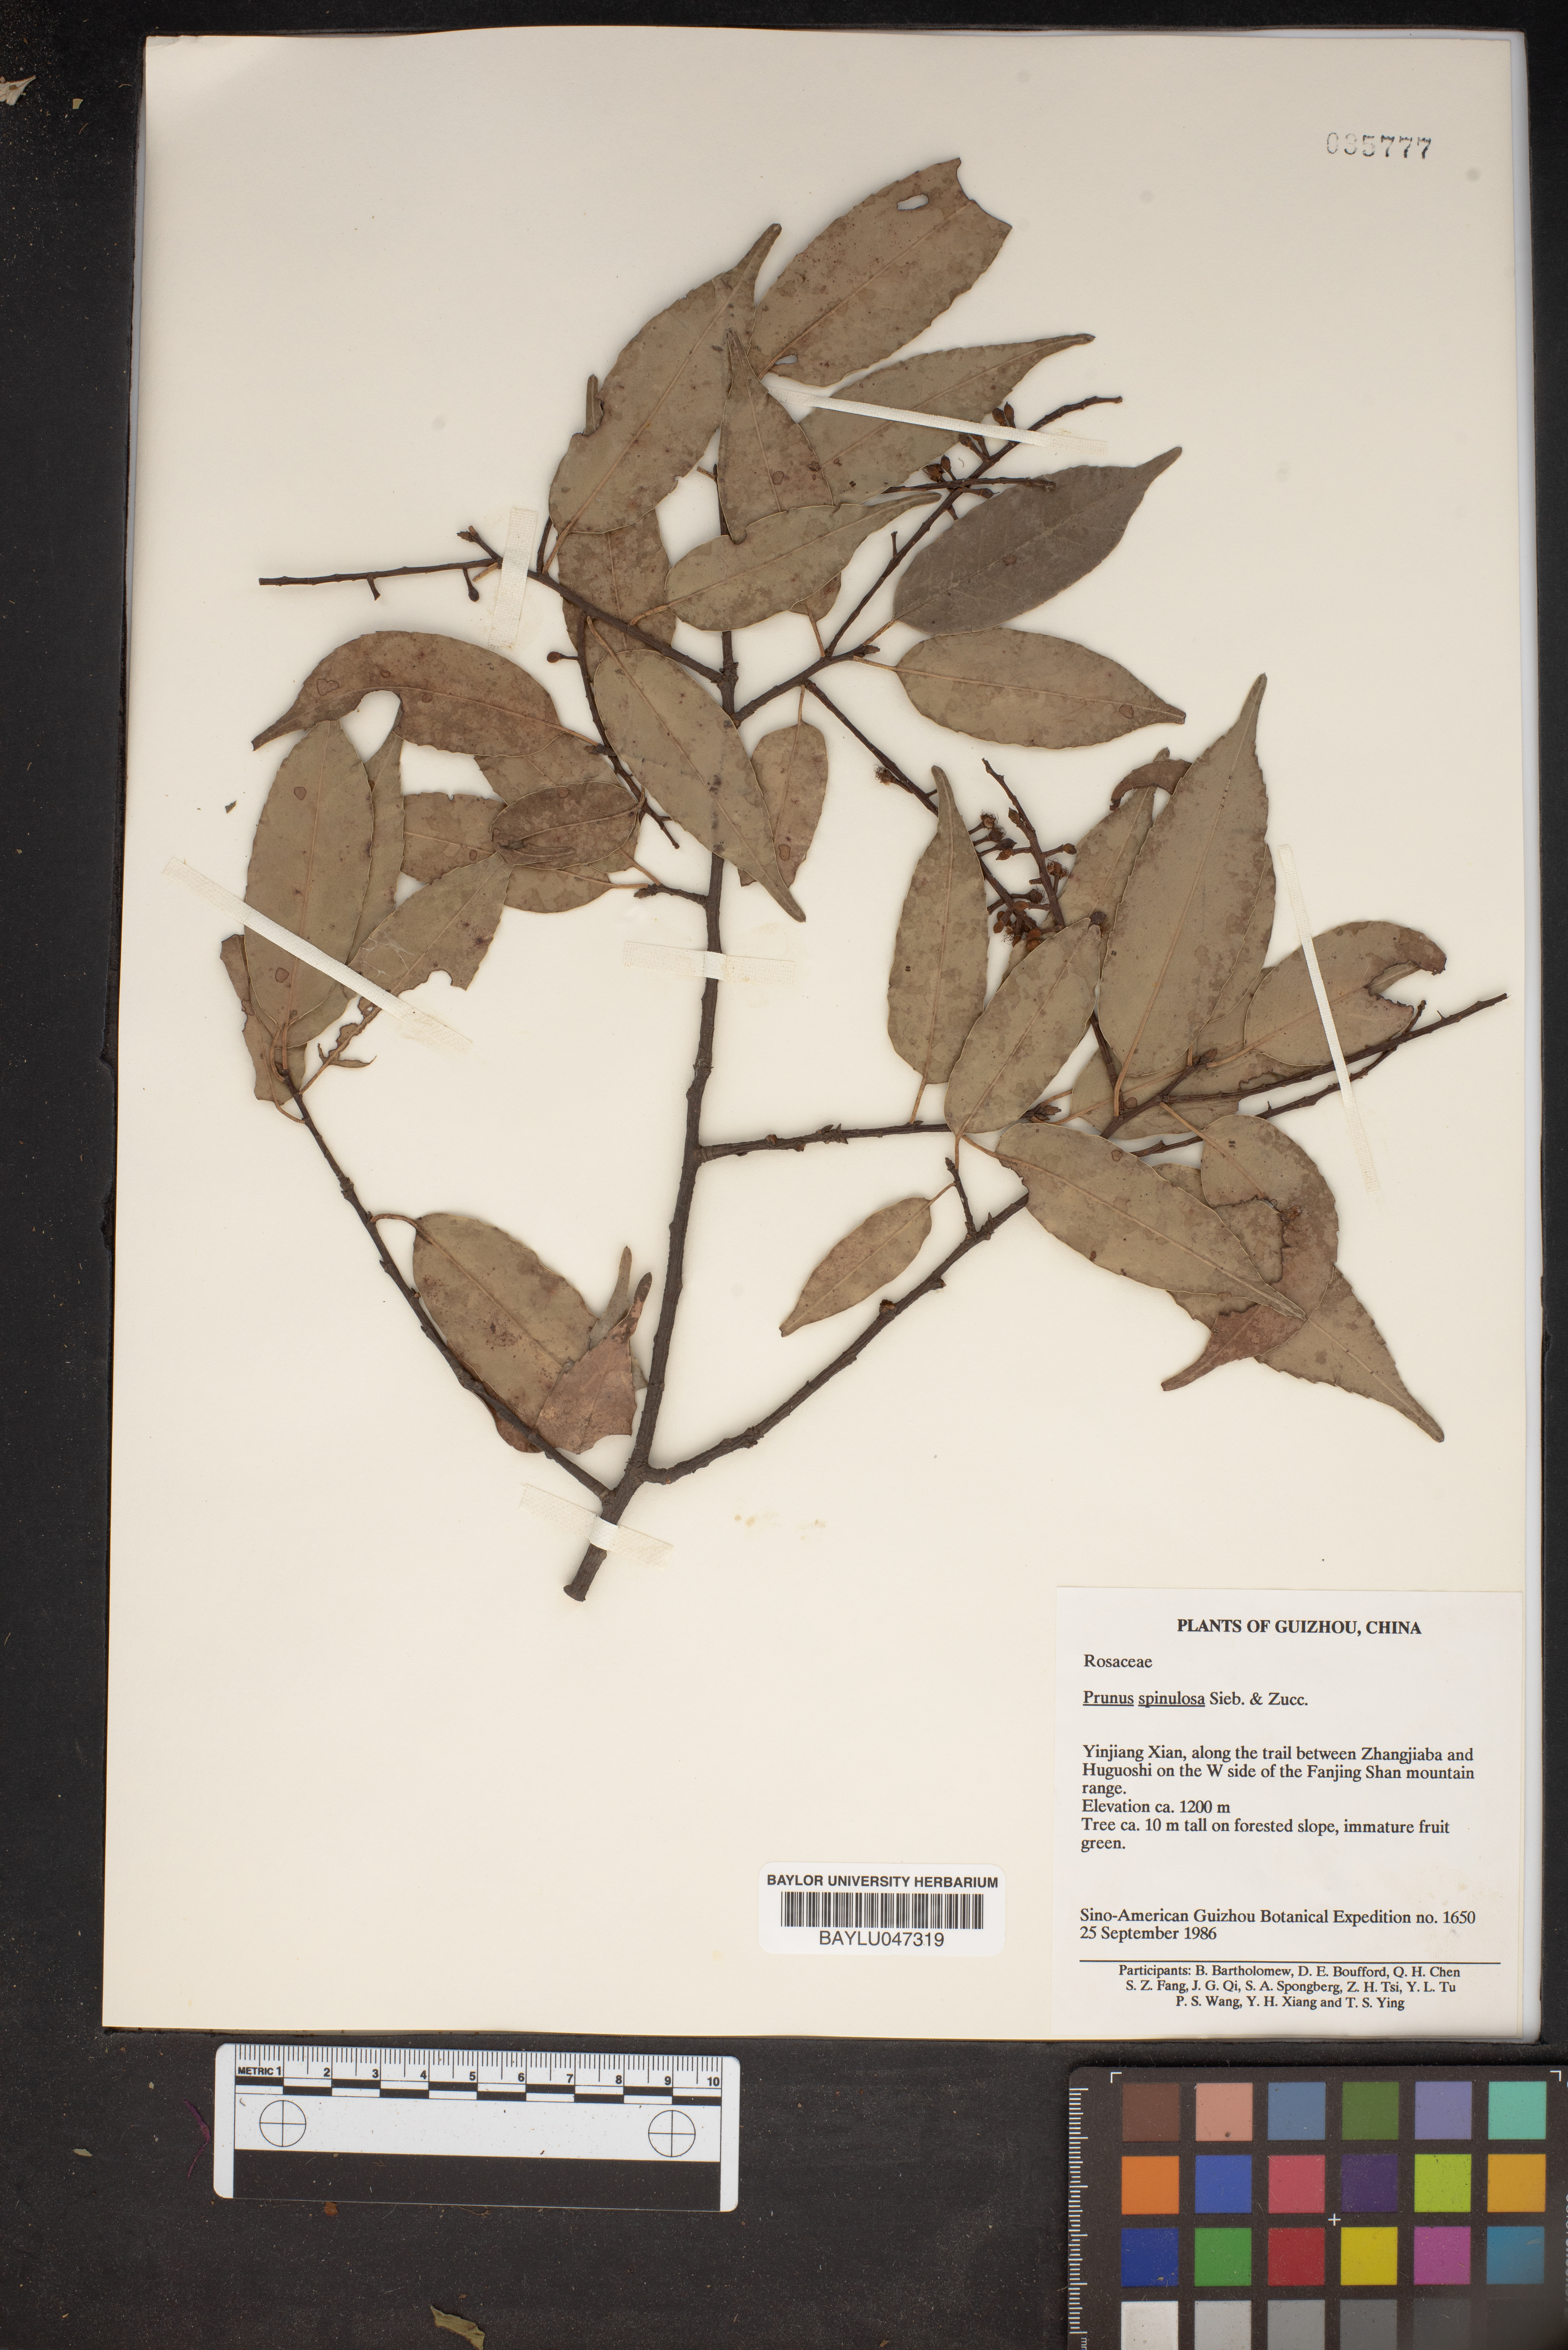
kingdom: Plantae
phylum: Tracheophyta
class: Magnoliopsida
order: Rosales
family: Rosaceae
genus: Prunus
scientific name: Prunus spinulosa
